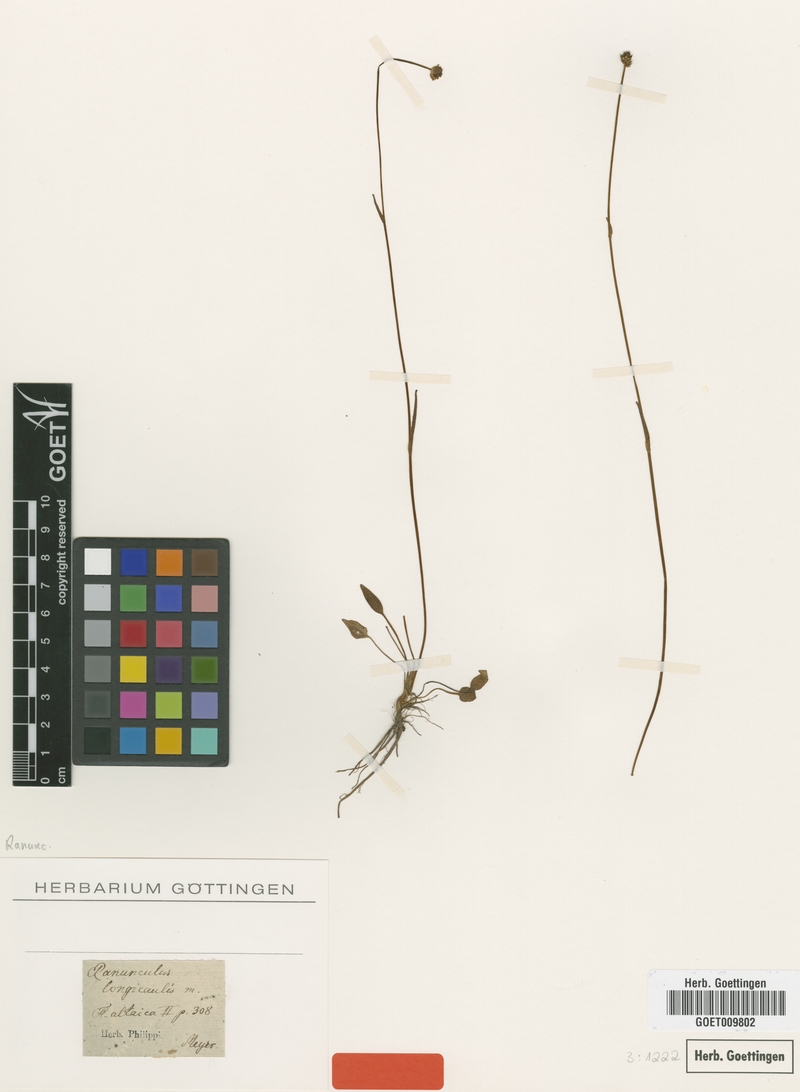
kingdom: Plantae
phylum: Tracheophyta
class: Magnoliopsida
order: Ranunculales
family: Ranunculaceae
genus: Ranunculus
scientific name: Ranunculus longicaulis
